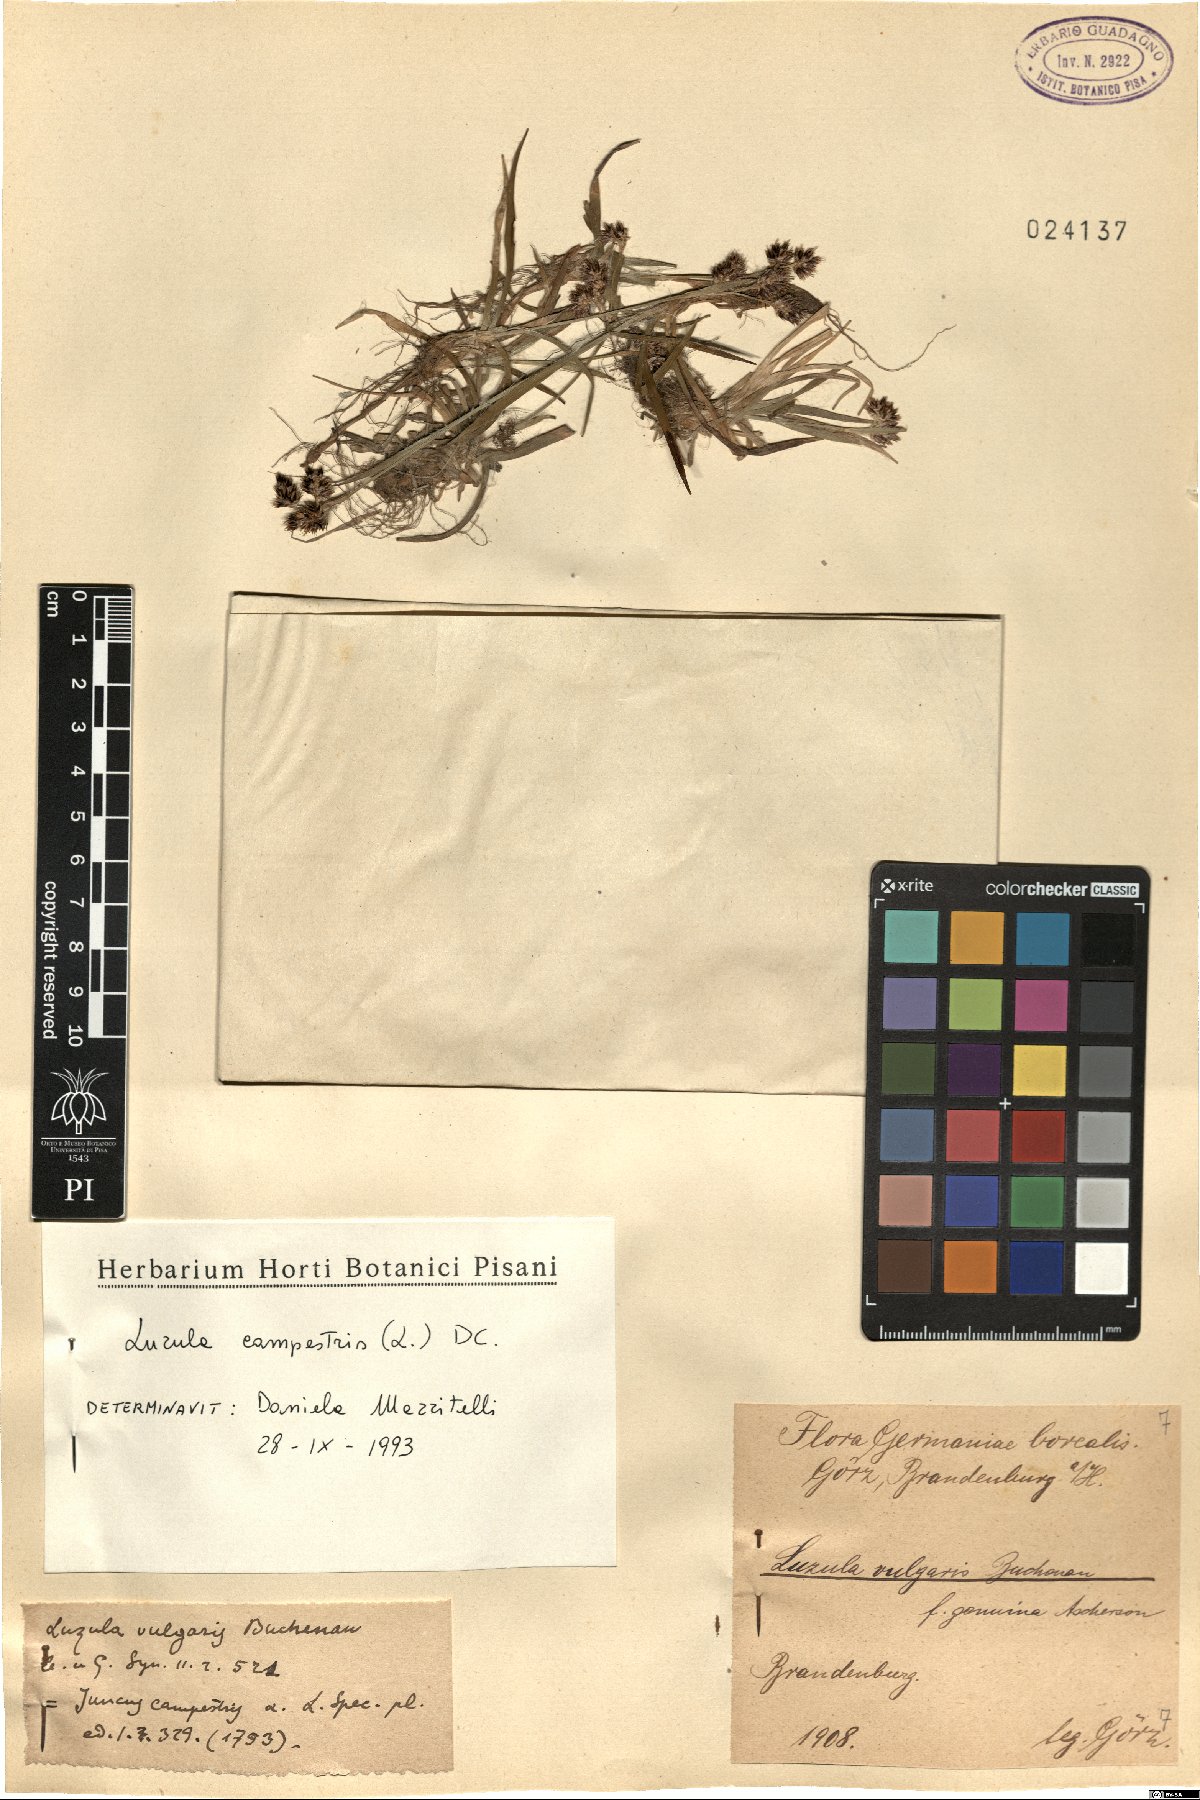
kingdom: Plantae
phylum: Tracheophyta
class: Liliopsida
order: Poales
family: Juncaceae
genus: Luzula
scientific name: Luzula campestris
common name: Field wood-rush
